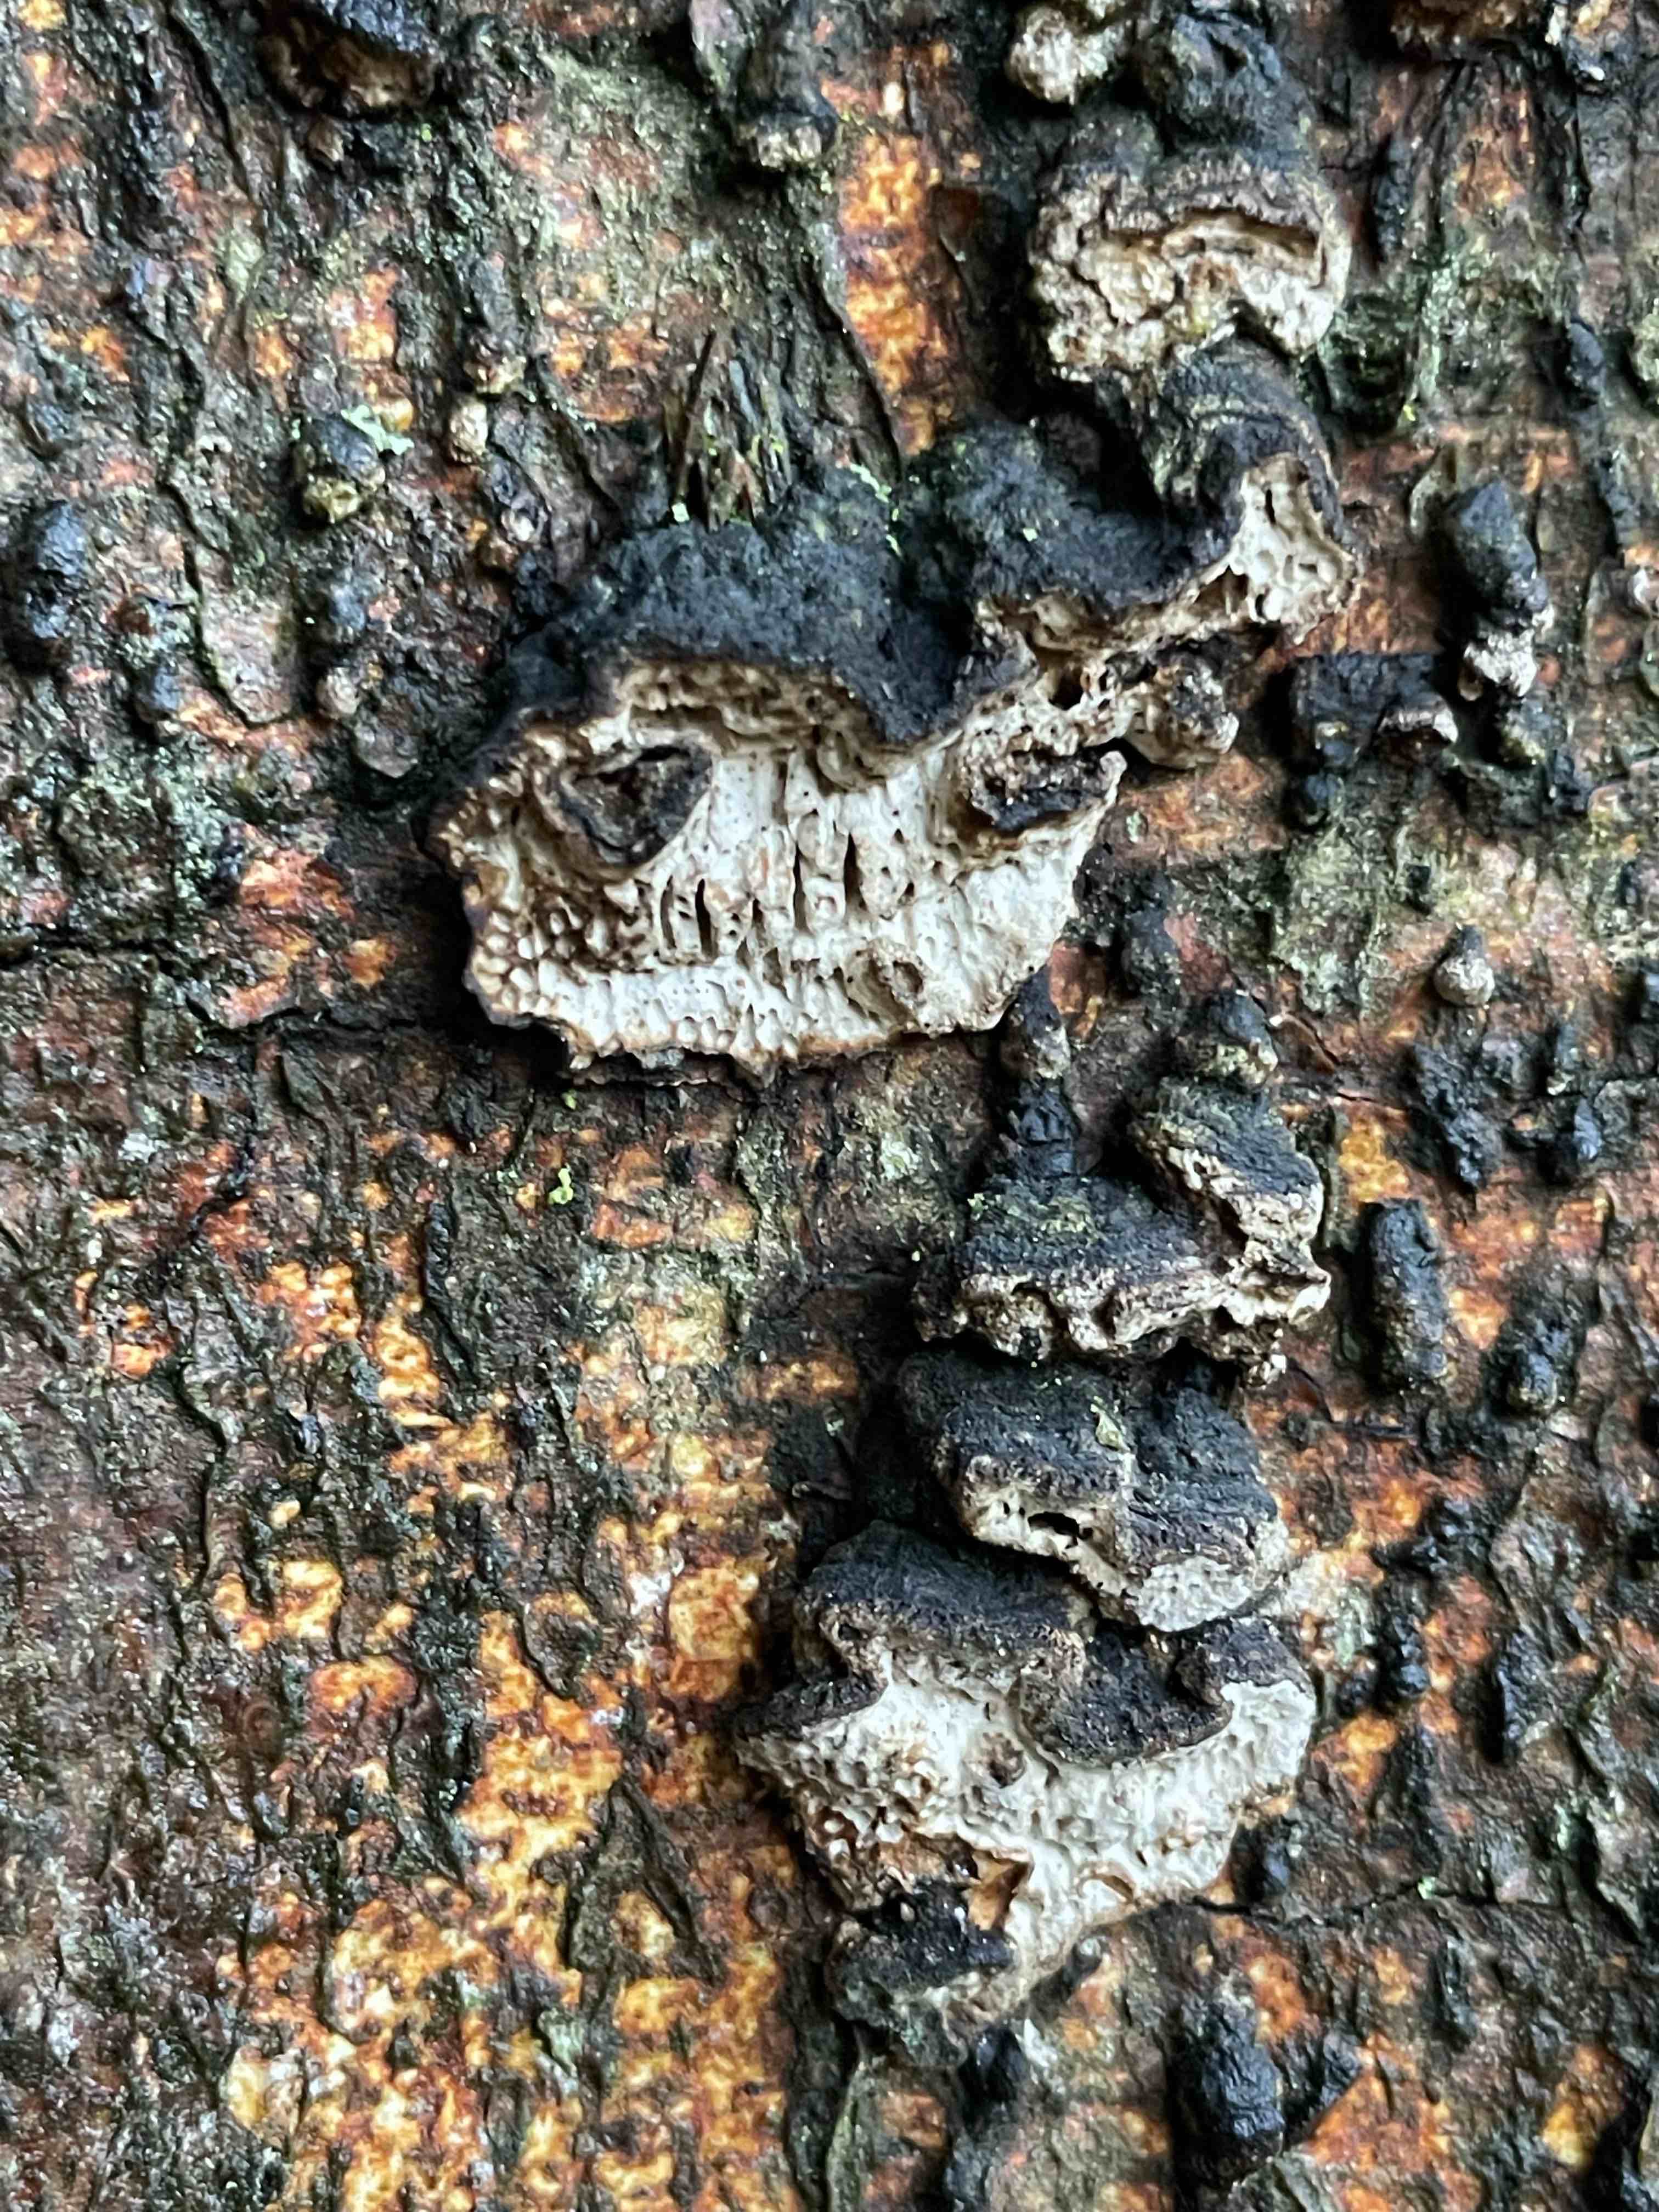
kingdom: Fungi
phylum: Basidiomycota
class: Agaricomycetes
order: Polyporales
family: Polyporaceae
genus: Podofomes
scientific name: Podofomes mollis
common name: blød begporesvamp
